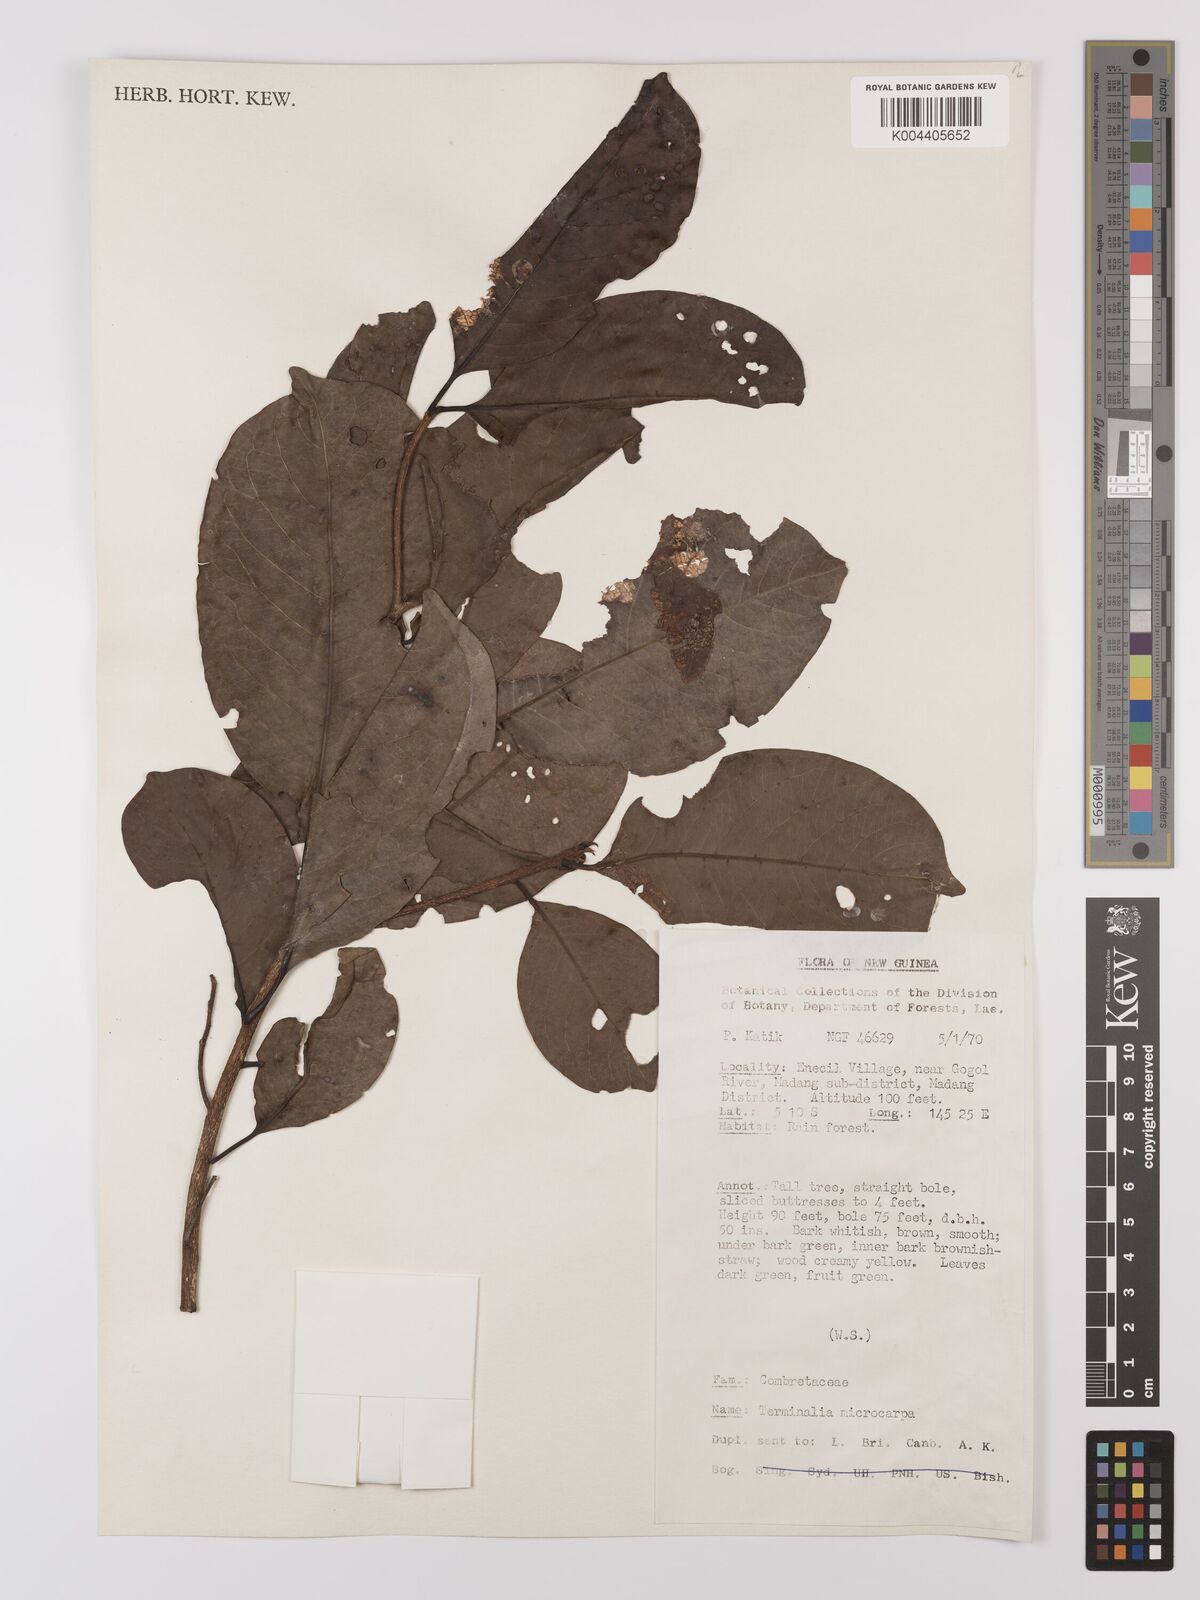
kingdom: Plantae
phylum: Tracheophyta
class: Magnoliopsida
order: Myrtales
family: Combretaceae
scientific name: Combretaceae
